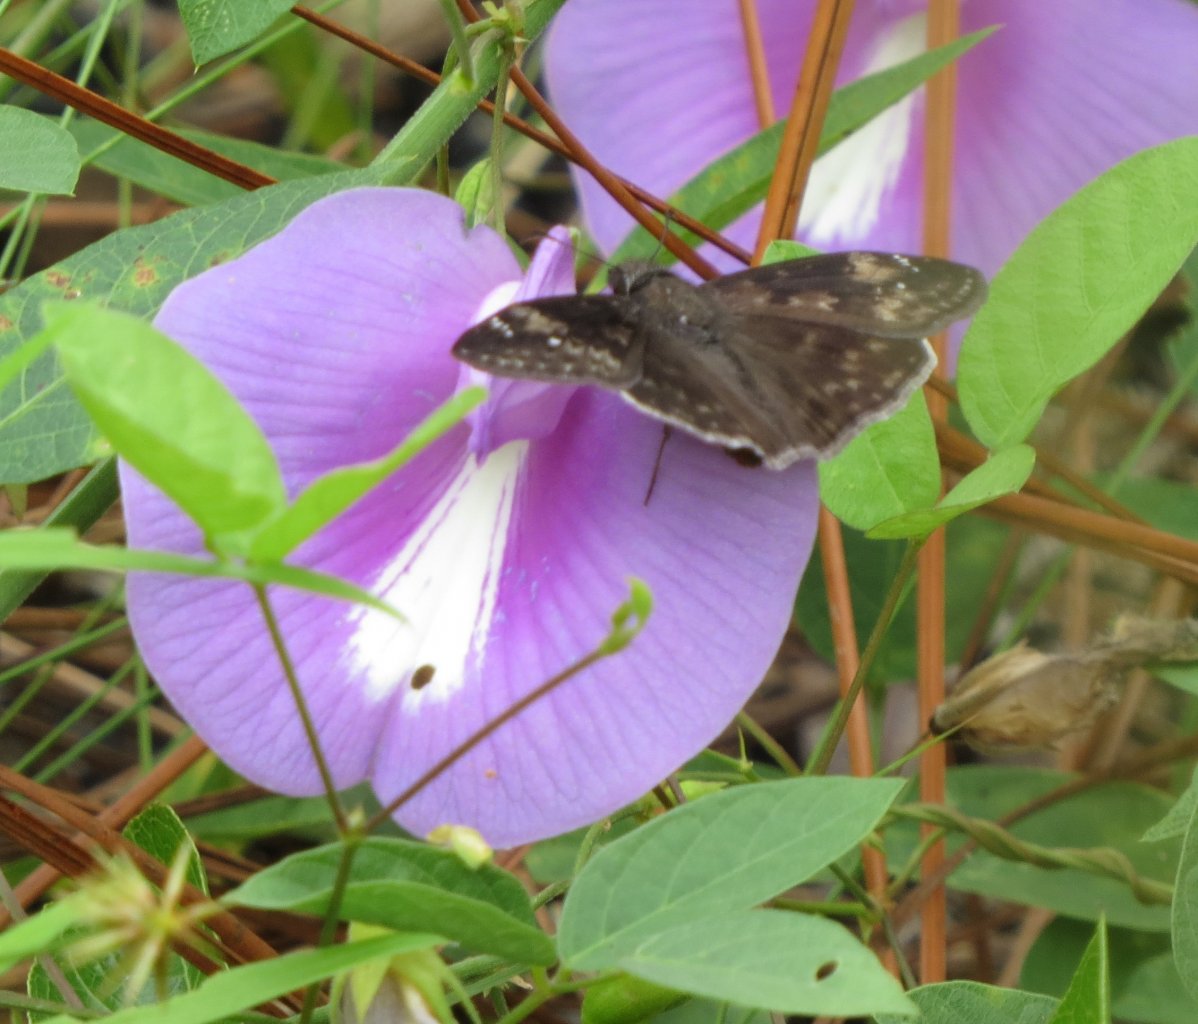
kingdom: Animalia
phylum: Arthropoda
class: Insecta
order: Lepidoptera
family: Hesperiidae
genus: Erynnis
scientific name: Erynnis zarucco
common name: Zarucco Duskywing
